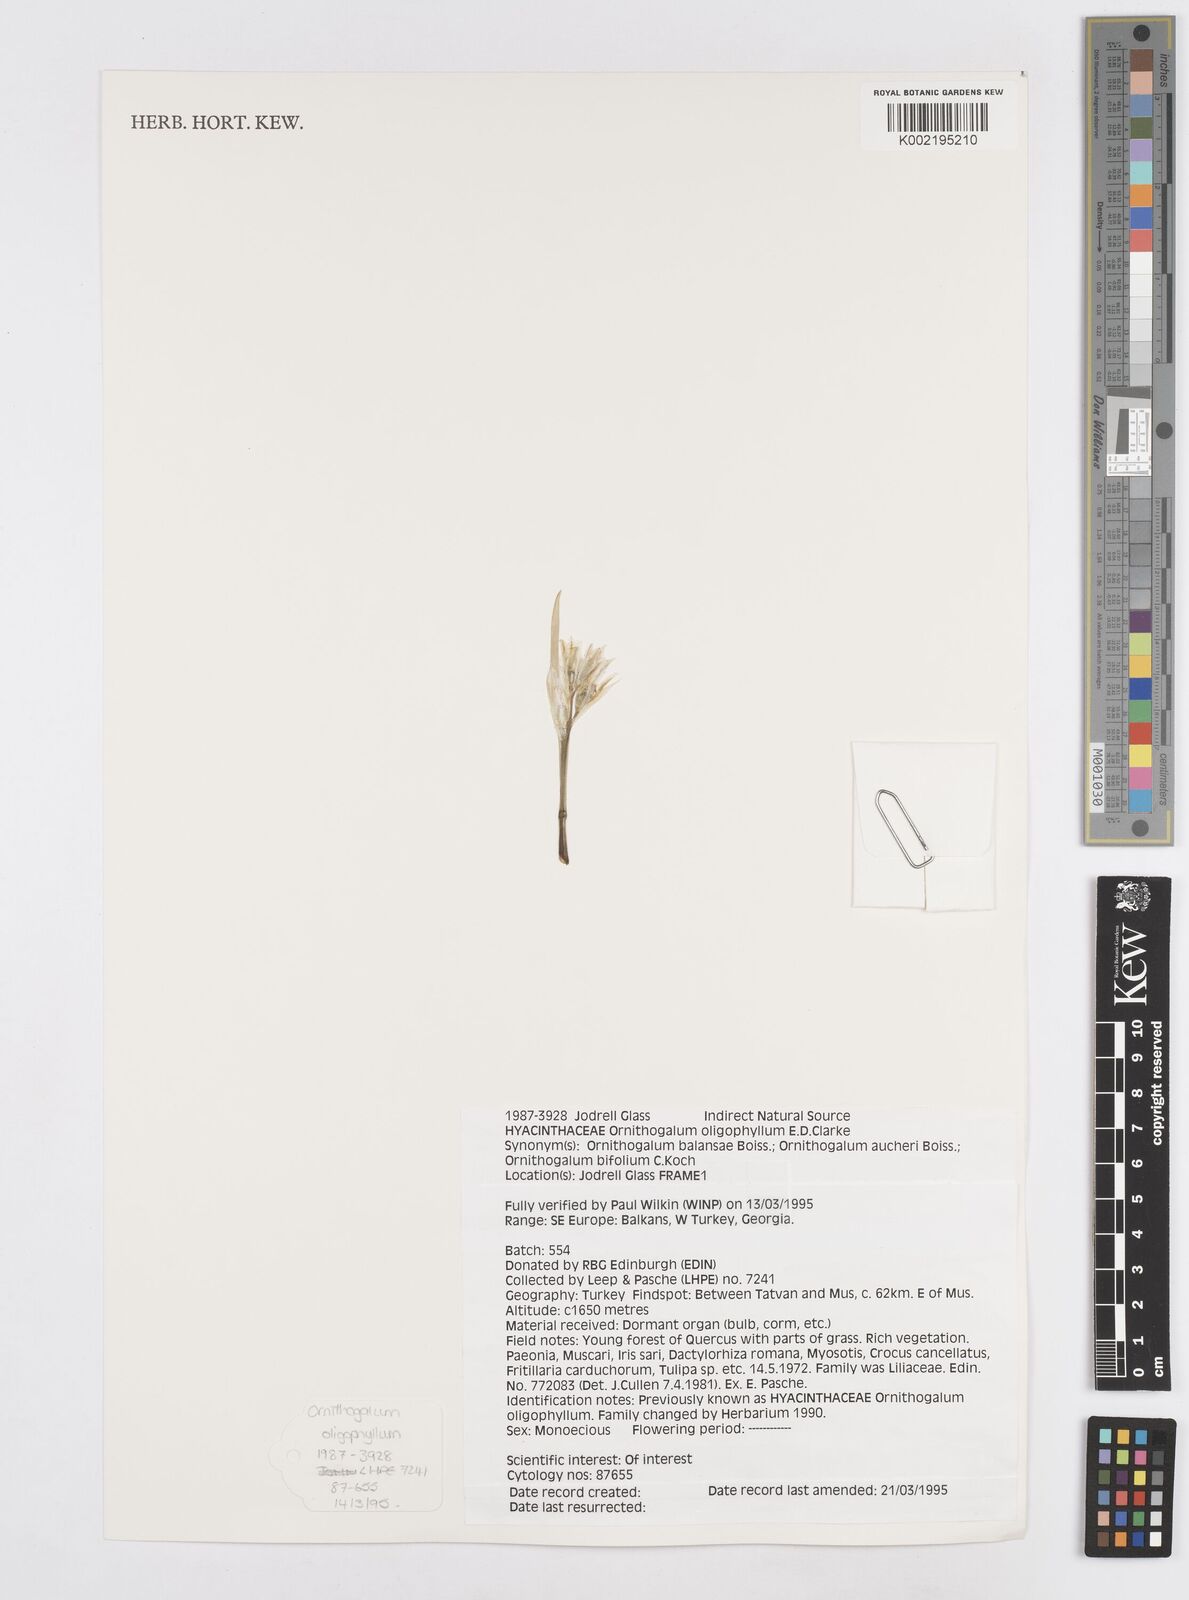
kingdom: Plantae
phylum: Tracheophyta
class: Liliopsida
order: Asparagales
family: Asparagaceae
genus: Ornithogalum
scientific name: Ornithogalum oligophyllum
